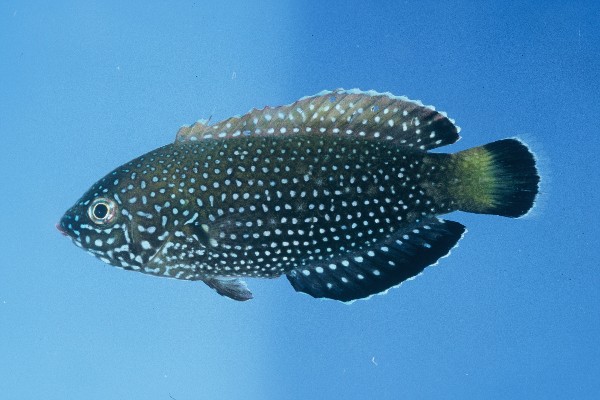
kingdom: Animalia
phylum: Chordata
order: Perciformes
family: Labridae
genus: Anampses
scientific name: Anampses melanurus
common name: White-spotted wrasse
